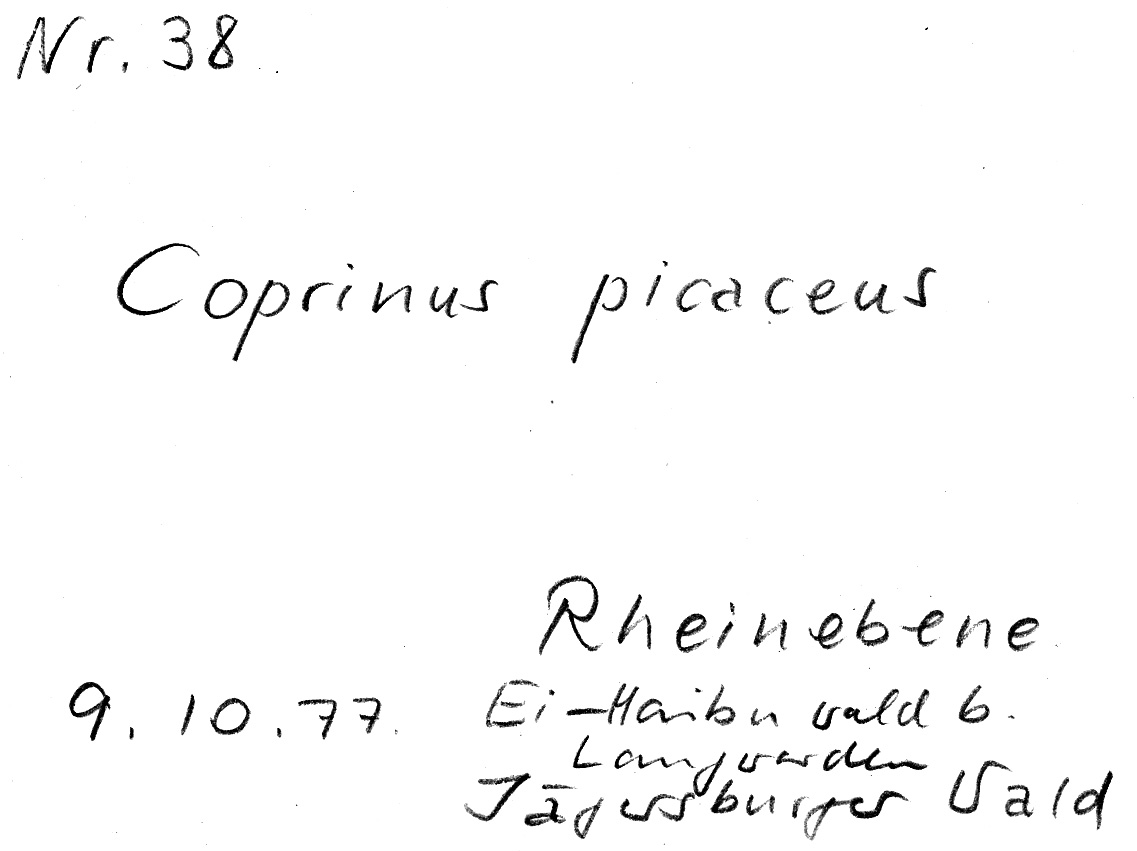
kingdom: Fungi
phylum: Basidiomycota
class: Agaricomycetes
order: Agaricales
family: Psathyrellaceae
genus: Coprinopsis
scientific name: Coprinopsis picacea
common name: Magpie inkcap
